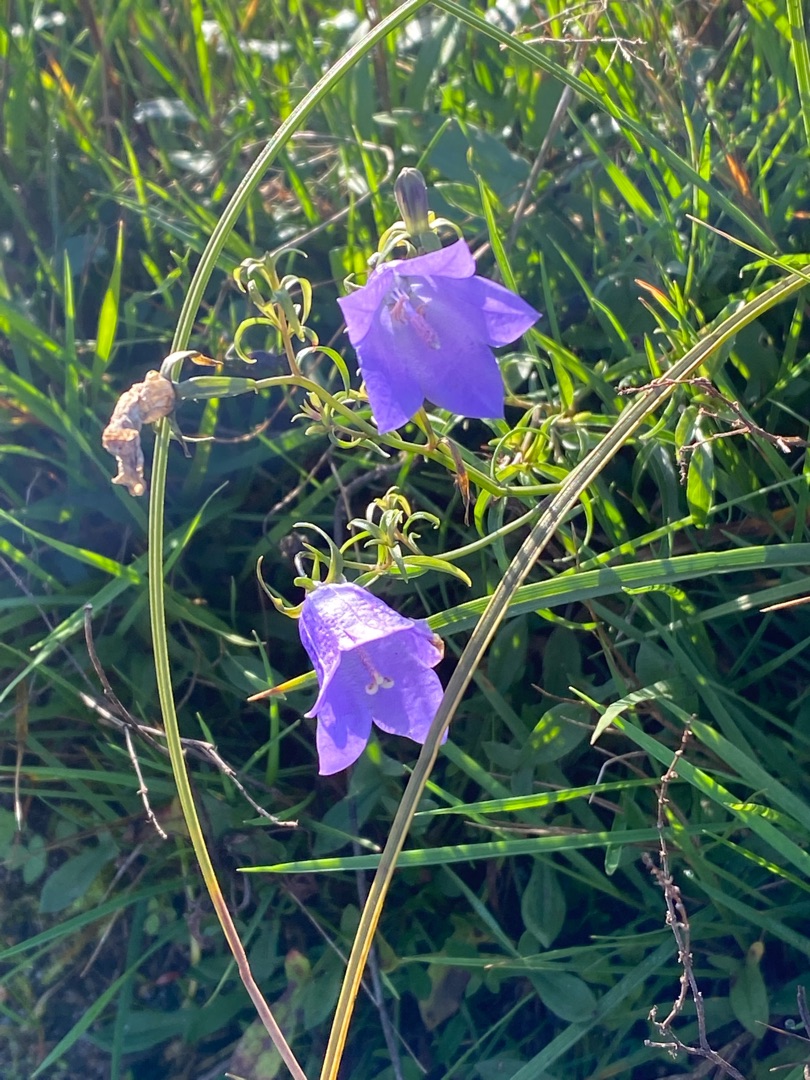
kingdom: Plantae
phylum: Tracheophyta
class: Magnoliopsida
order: Asterales
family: Campanulaceae
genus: Campanula
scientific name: Campanula rotundifolia
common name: Liden klokke
